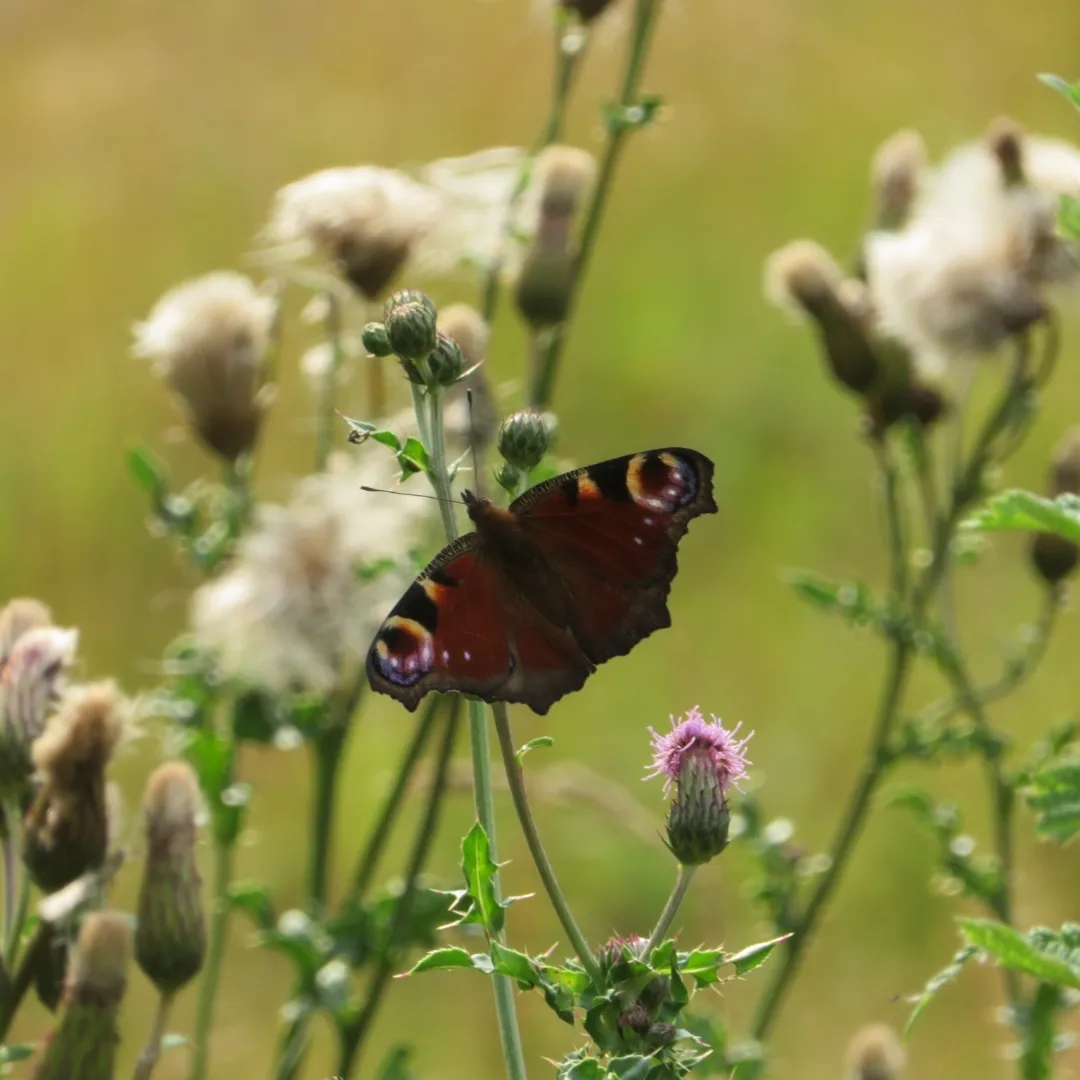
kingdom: Animalia
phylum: Arthropoda
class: Insecta
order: Lepidoptera
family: Nymphalidae
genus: Aglais
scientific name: Aglais io
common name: Dagpåfugleøje
